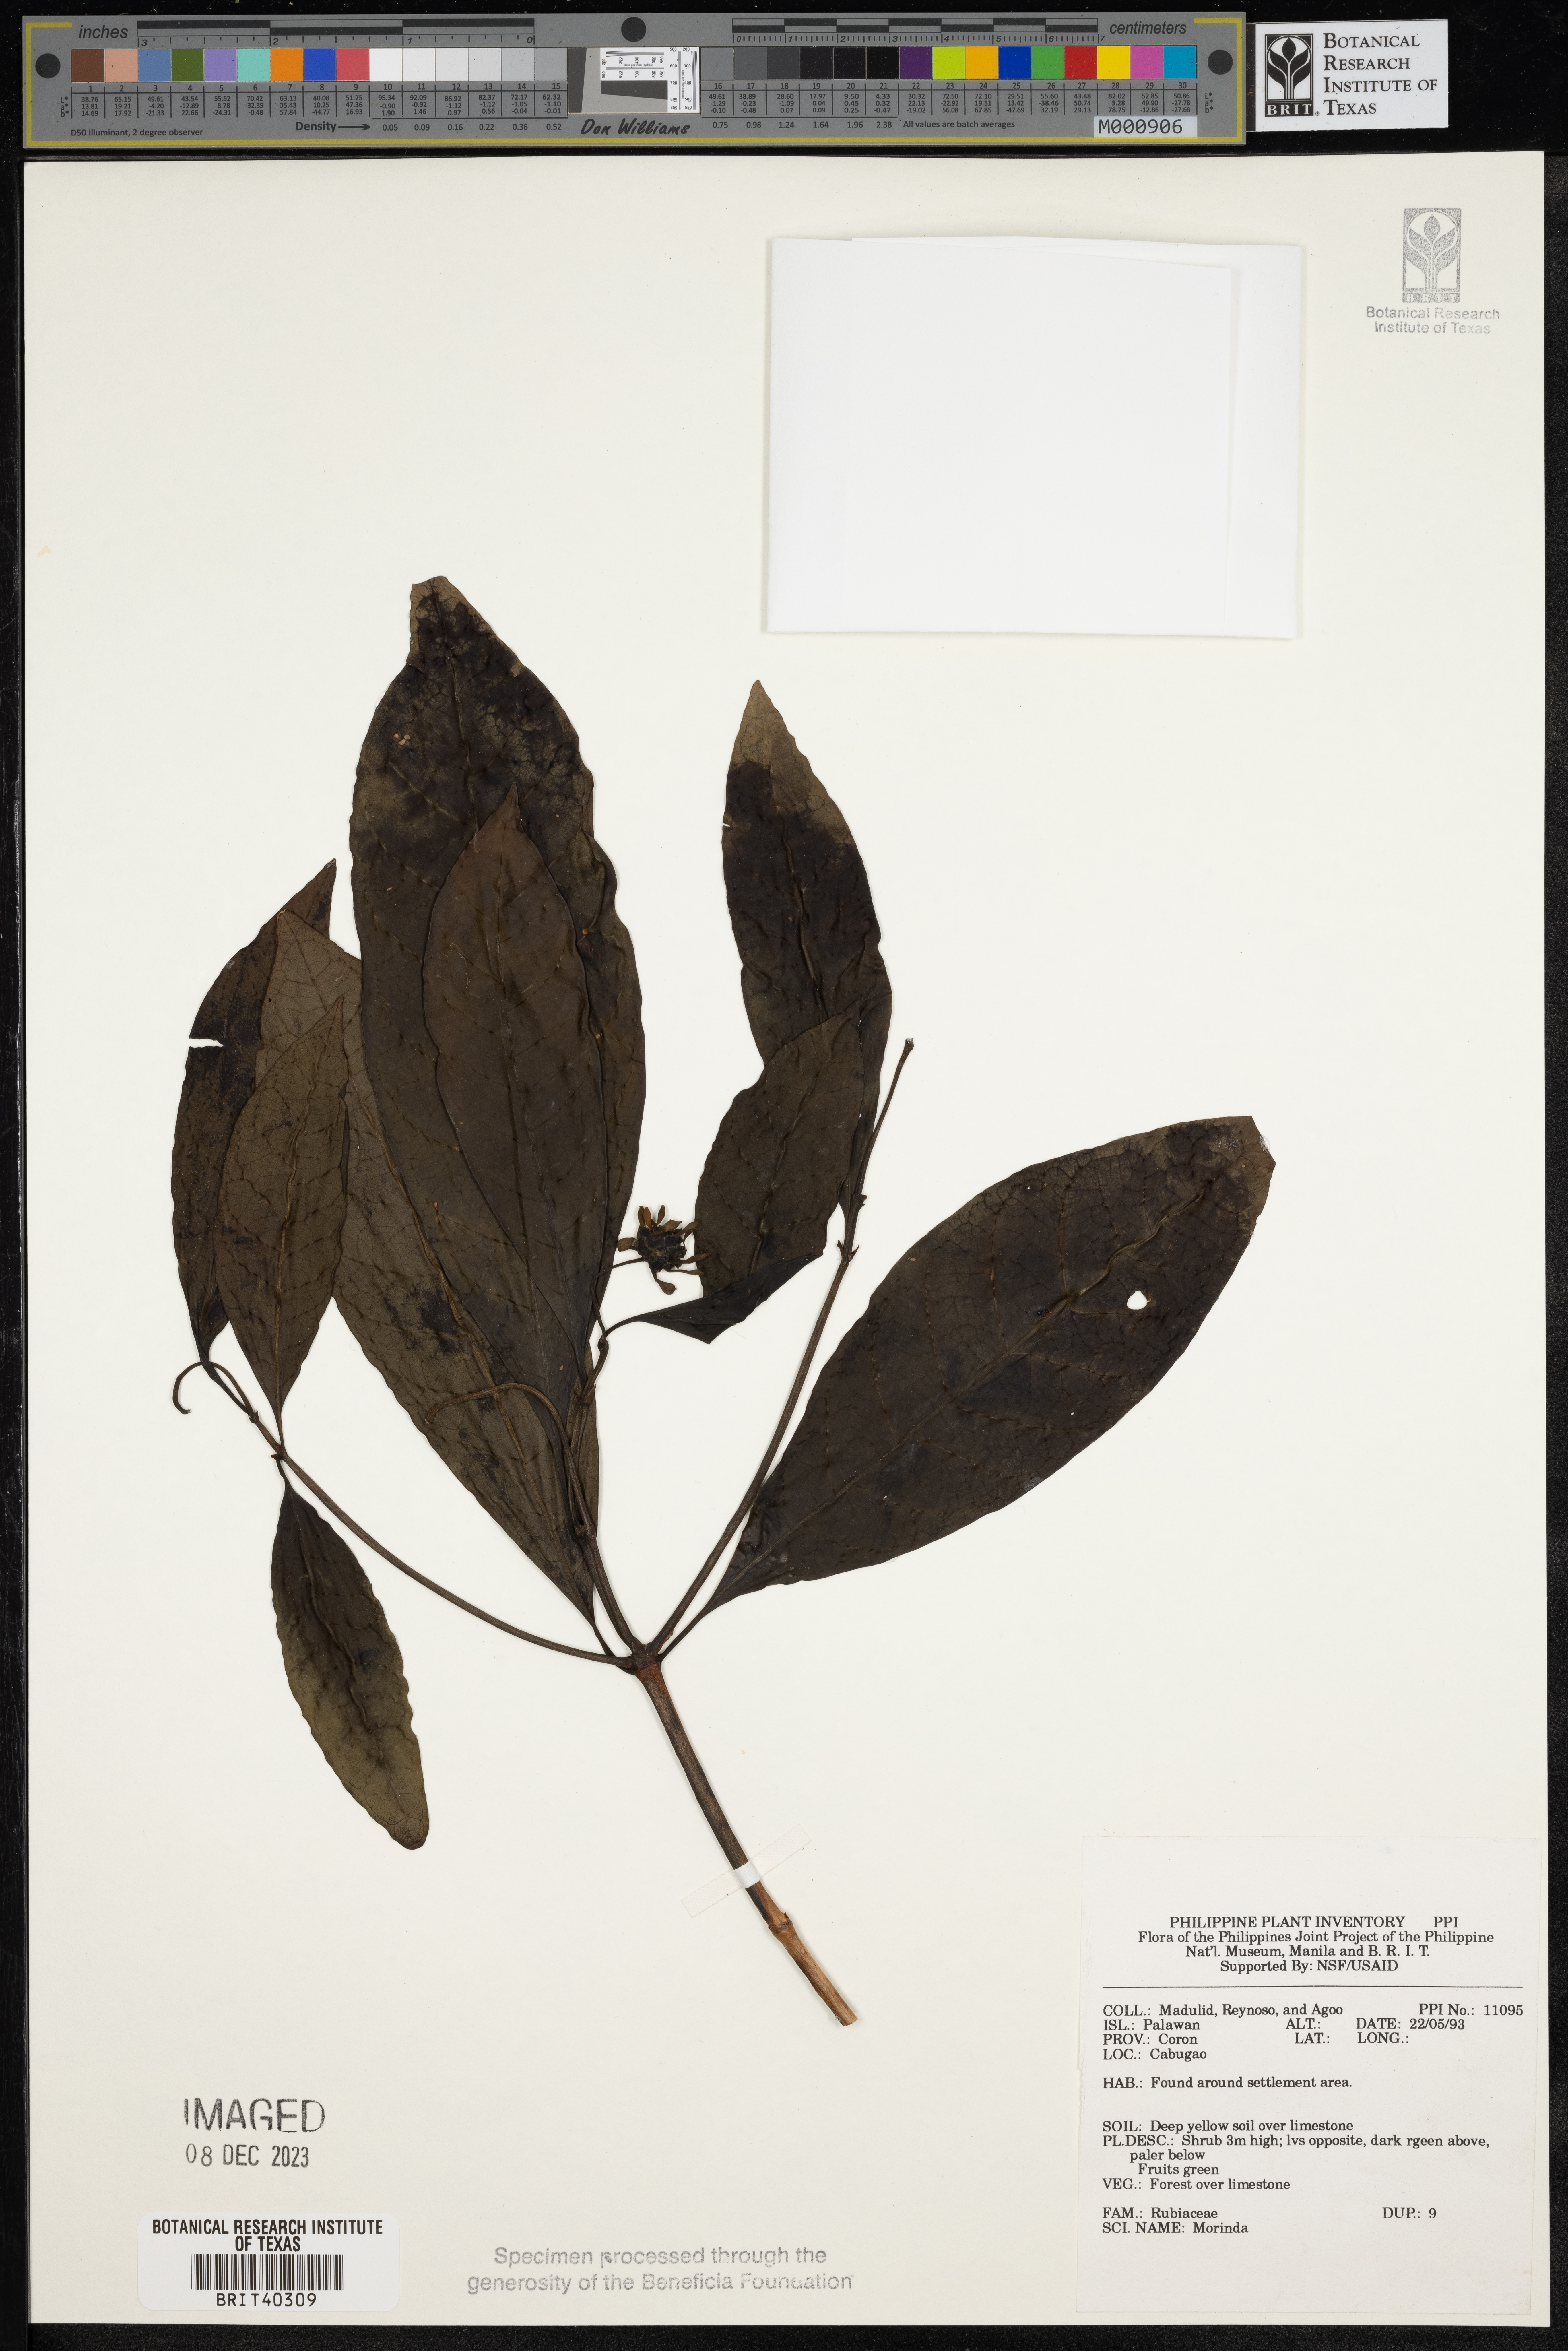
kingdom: Plantae
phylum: Tracheophyta
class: Magnoliopsida
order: Gentianales
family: Rubiaceae
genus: Morinda
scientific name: Morinda
